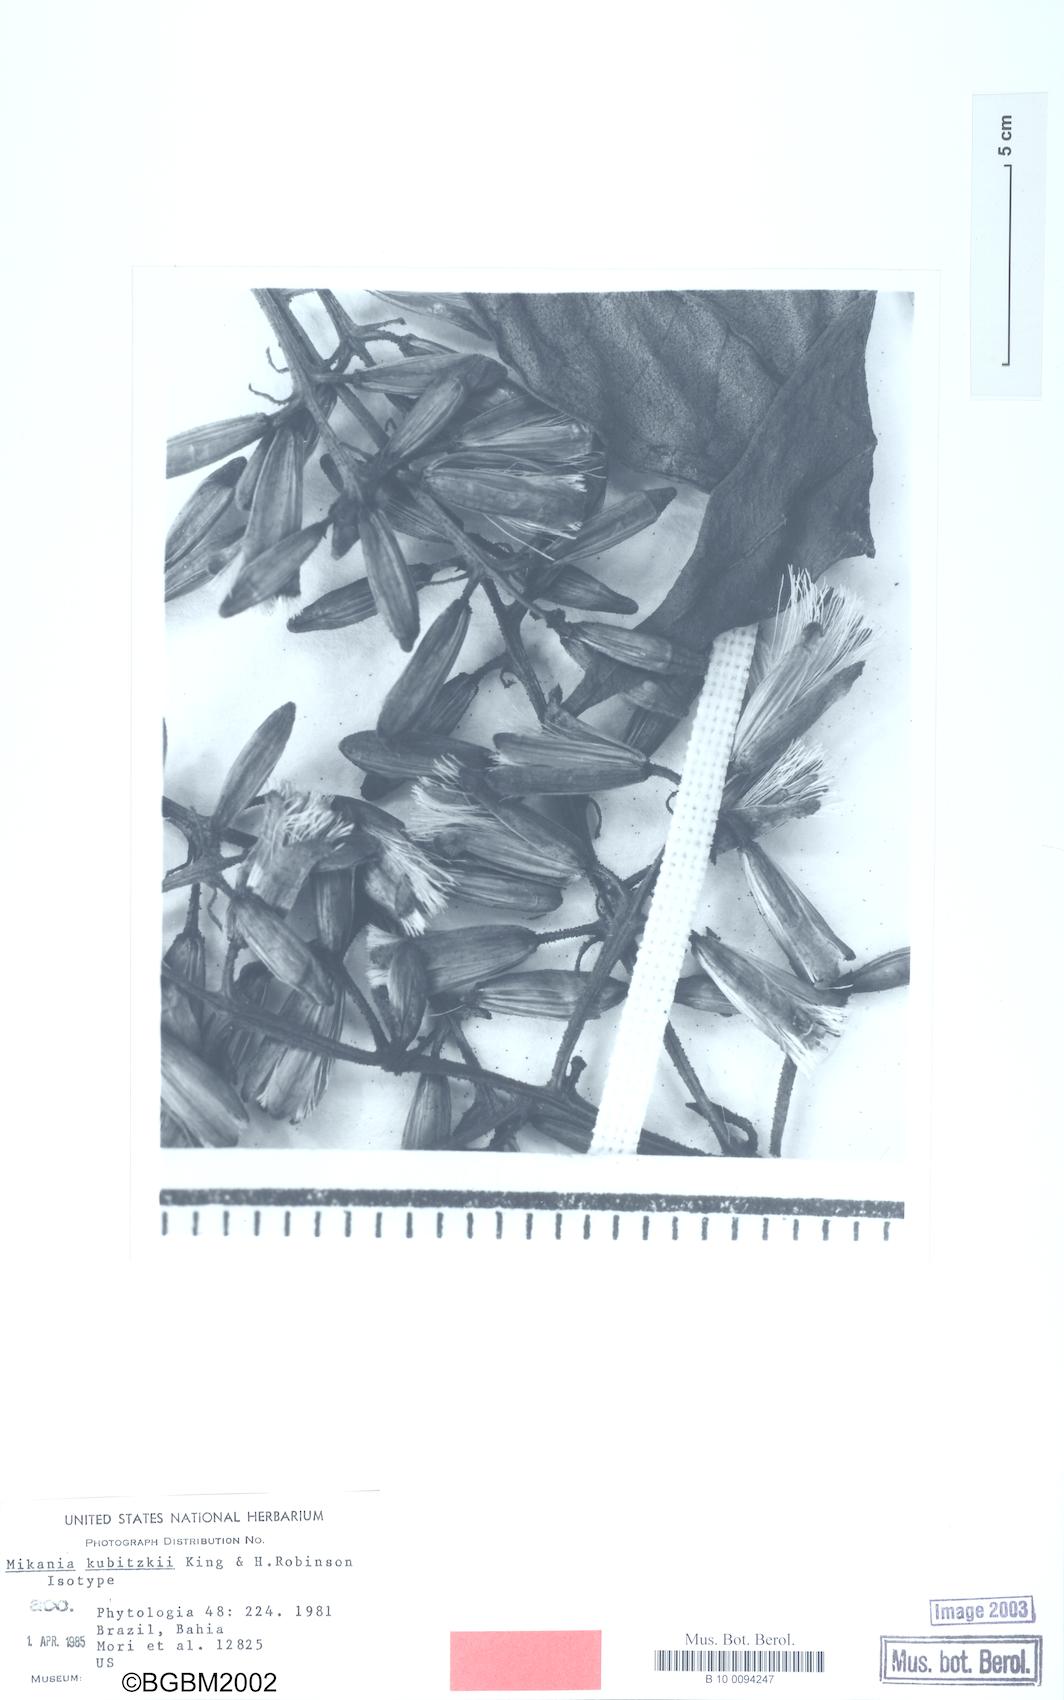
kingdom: Plantae
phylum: Tracheophyta
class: Magnoliopsida
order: Asterales
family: Asteraceae
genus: Mikania
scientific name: Mikania kubitzkii
